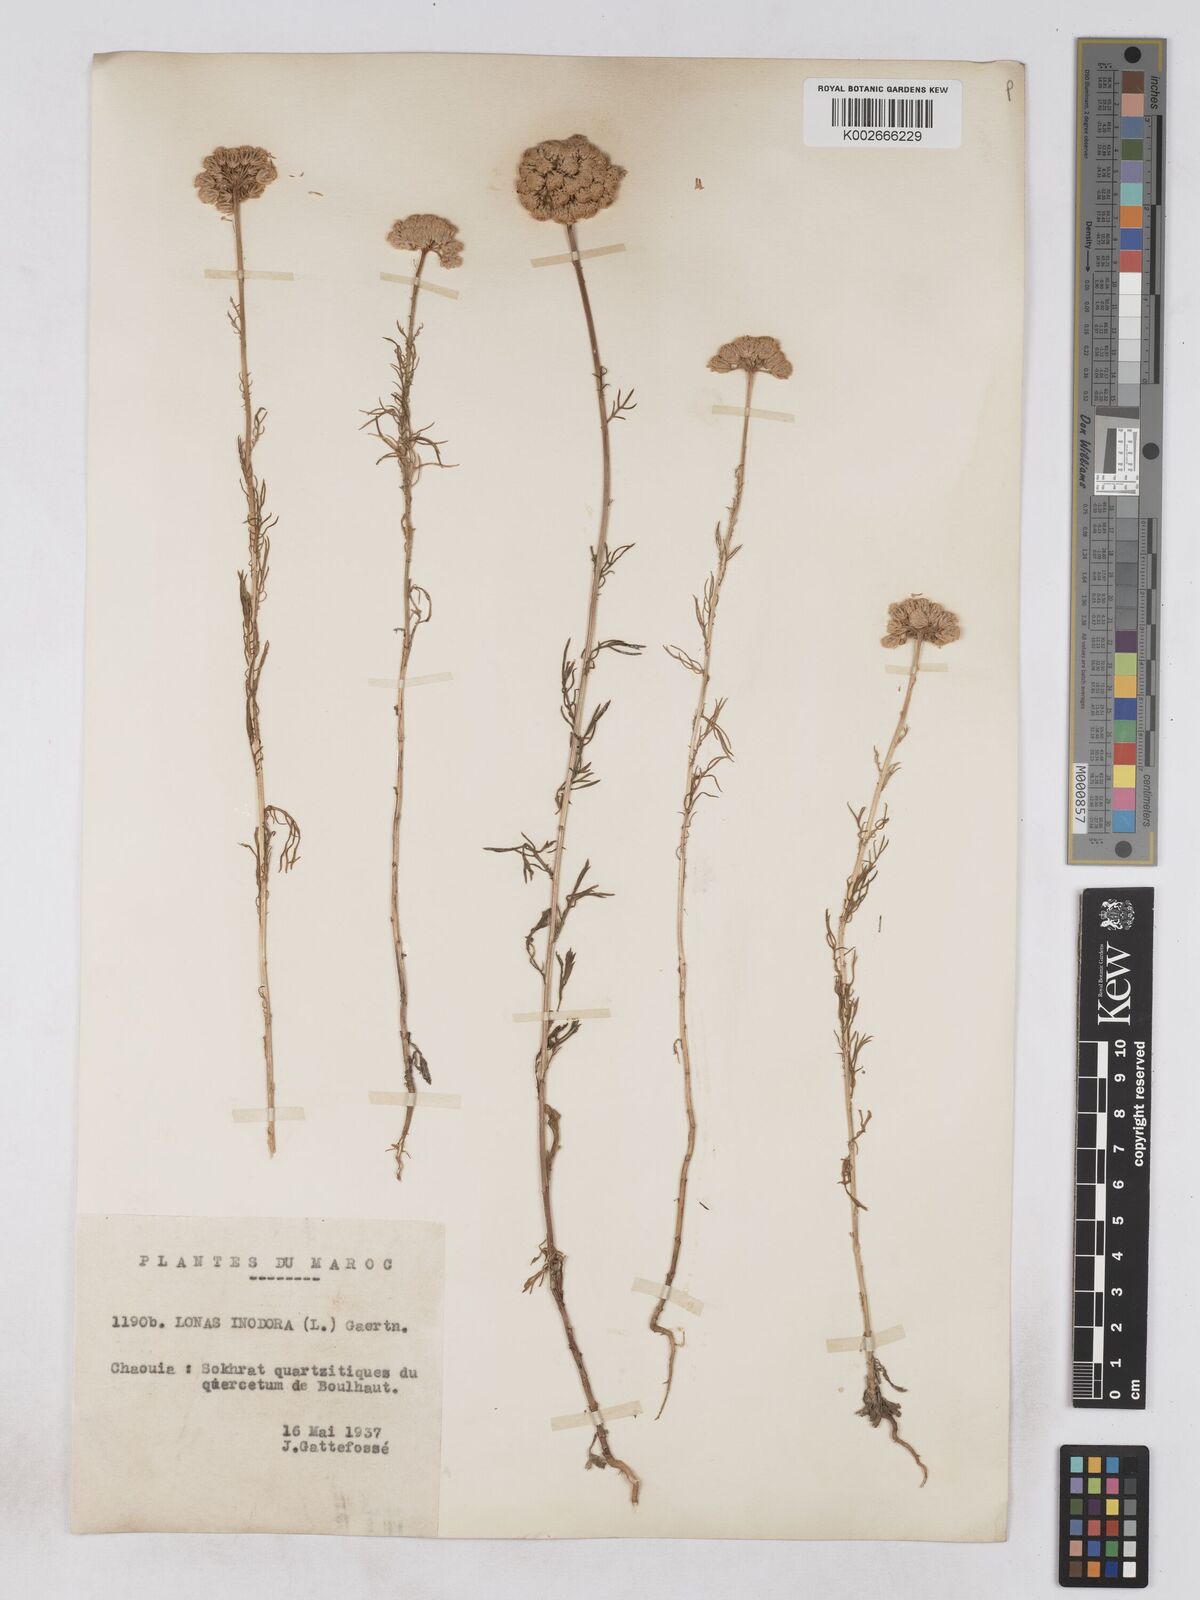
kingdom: Plantae
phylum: Tracheophyta
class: Magnoliopsida
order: Asterales
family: Asteraceae
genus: Lonas
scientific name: Lonas
